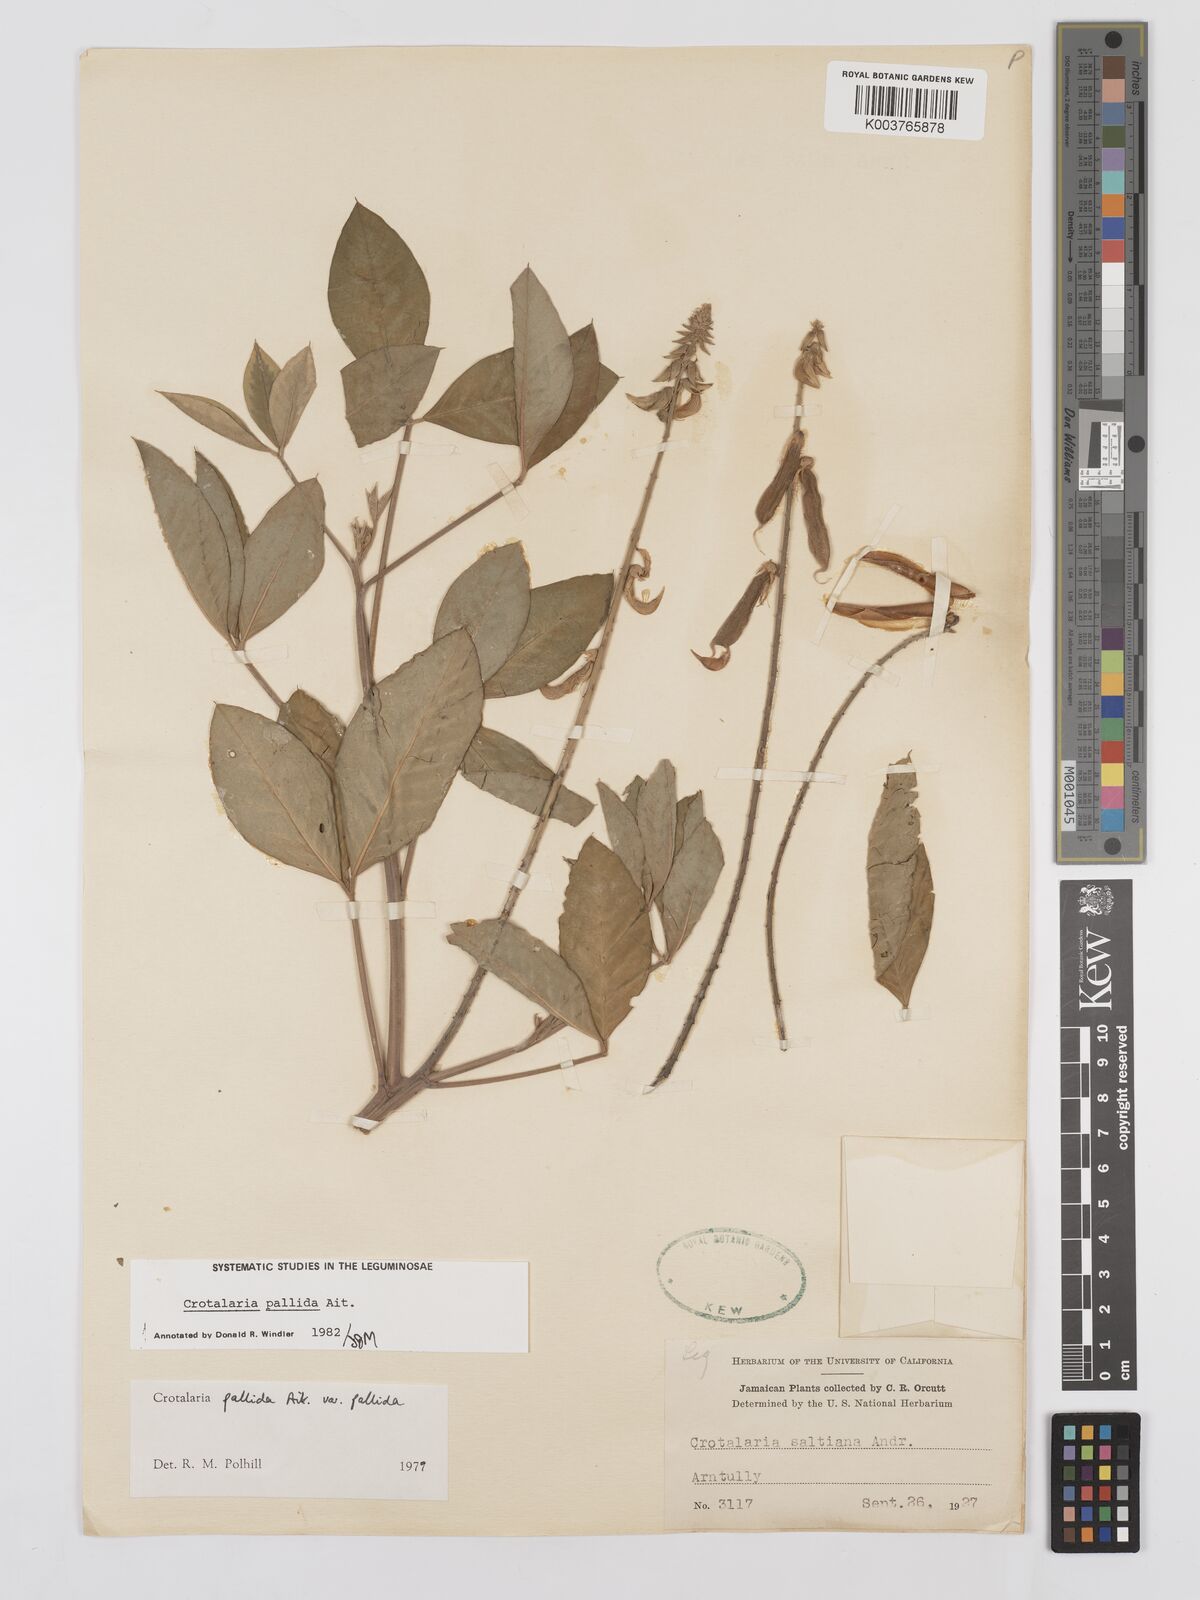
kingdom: Plantae
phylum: Tracheophyta
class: Magnoliopsida
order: Fabales
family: Fabaceae
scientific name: Fabaceae
